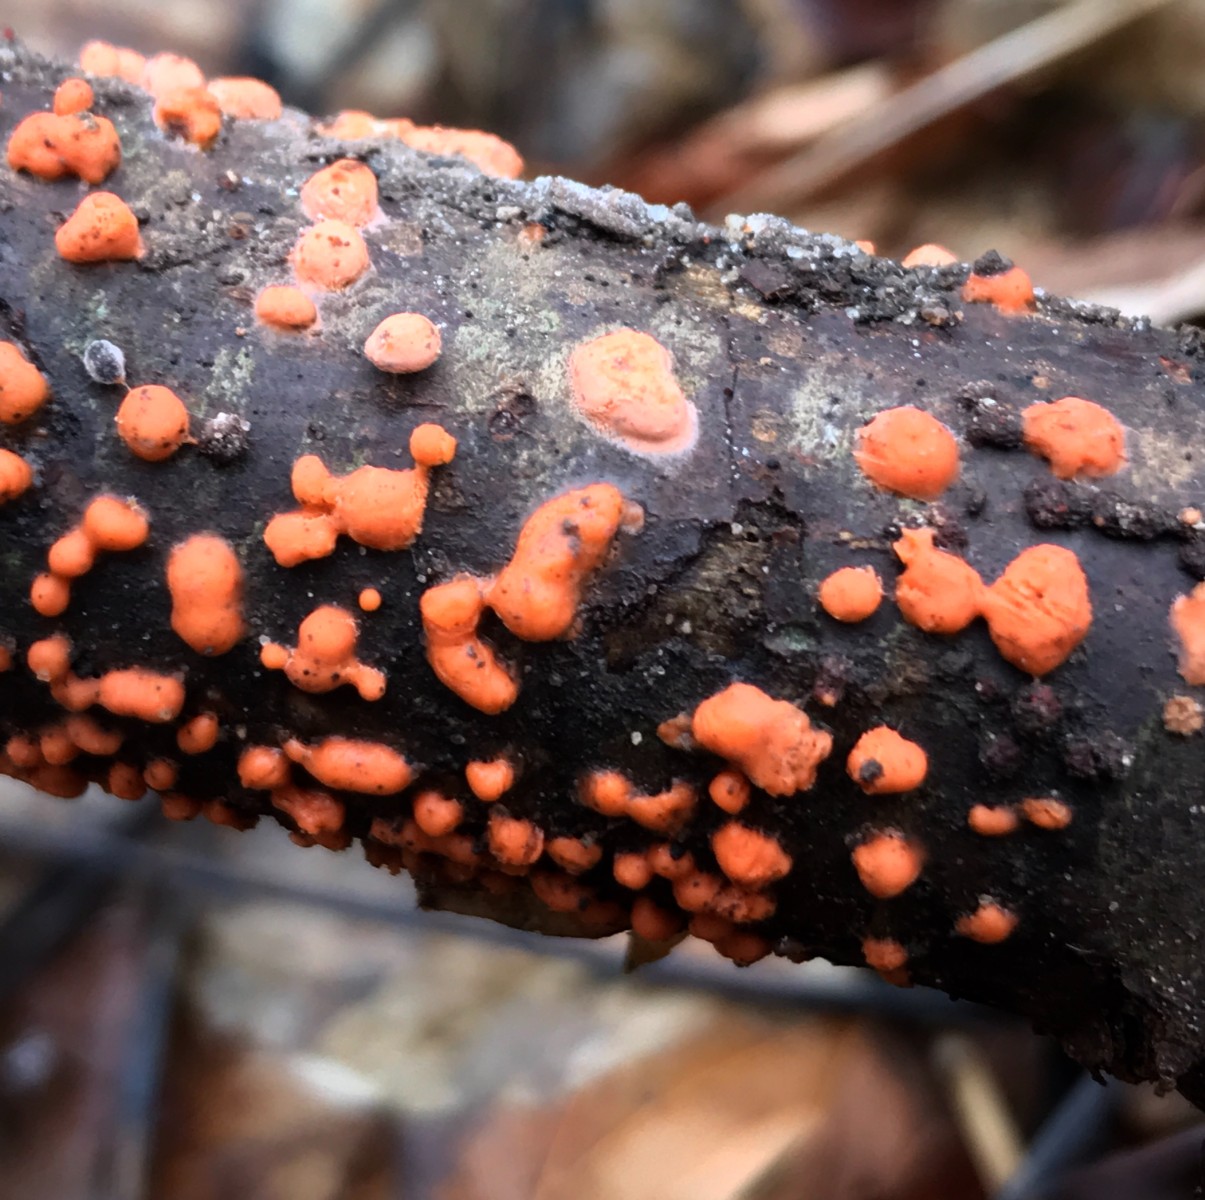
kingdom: Fungi
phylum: Ascomycota
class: Sordariomycetes
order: Hypocreales
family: Nectriaceae
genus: Nectria
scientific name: Nectria cinnabarina
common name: almindelig cinnobersvamp
